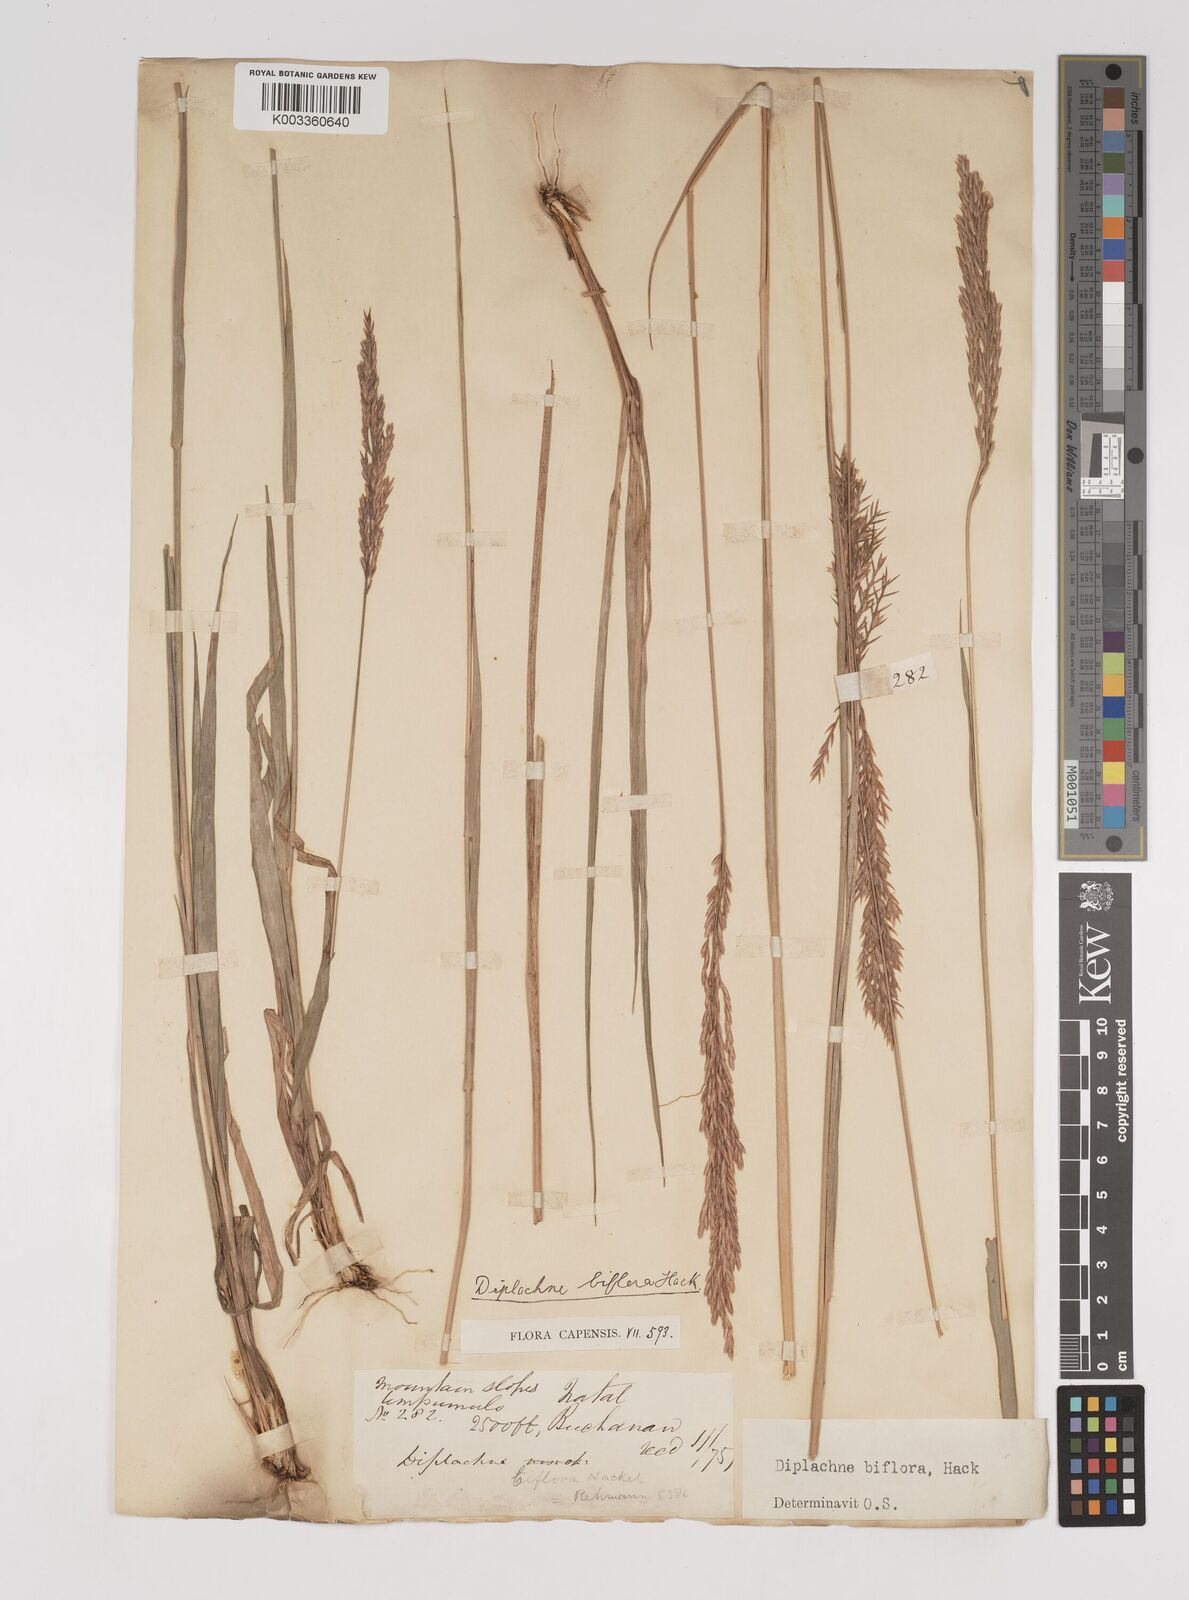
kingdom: Plantae
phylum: Tracheophyta
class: Liliopsida
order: Poales
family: Poaceae
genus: Bewsia
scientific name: Bewsia biflora
